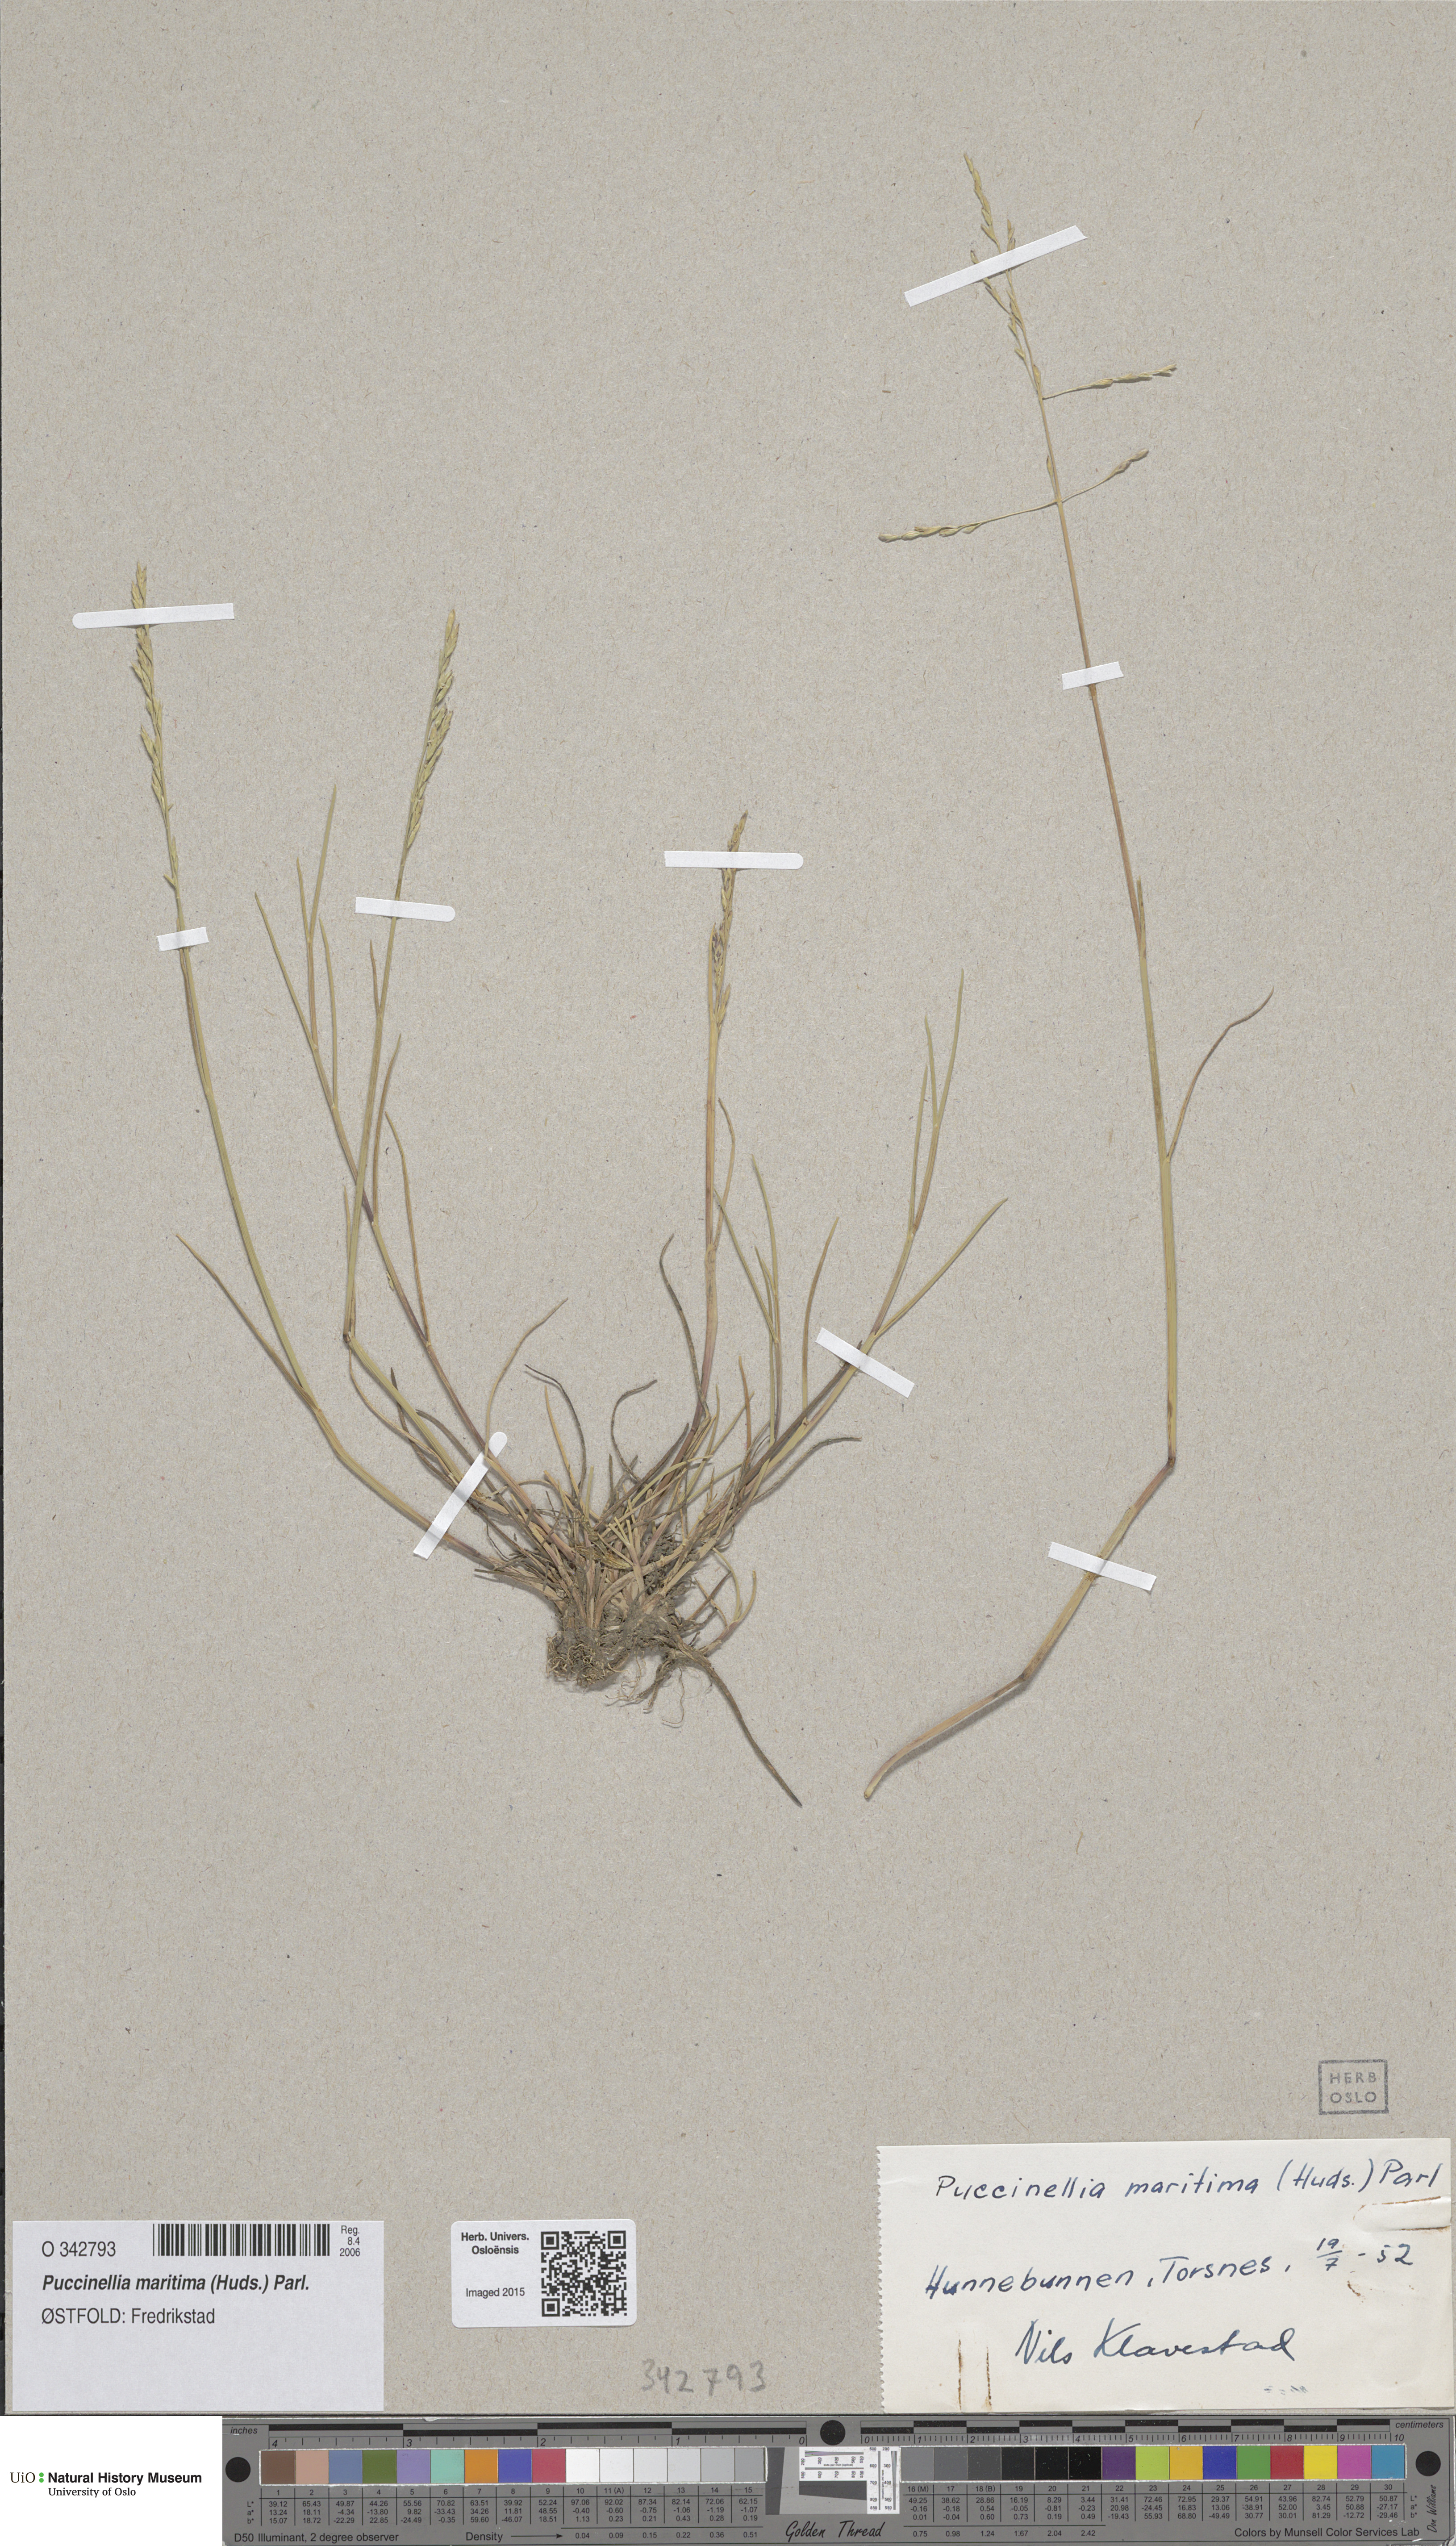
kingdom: Plantae
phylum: Tracheophyta
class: Liliopsida
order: Poales
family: Poaceae
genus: Puccinellia
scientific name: Puccinellia maritima
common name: Common saltmarsh grass
